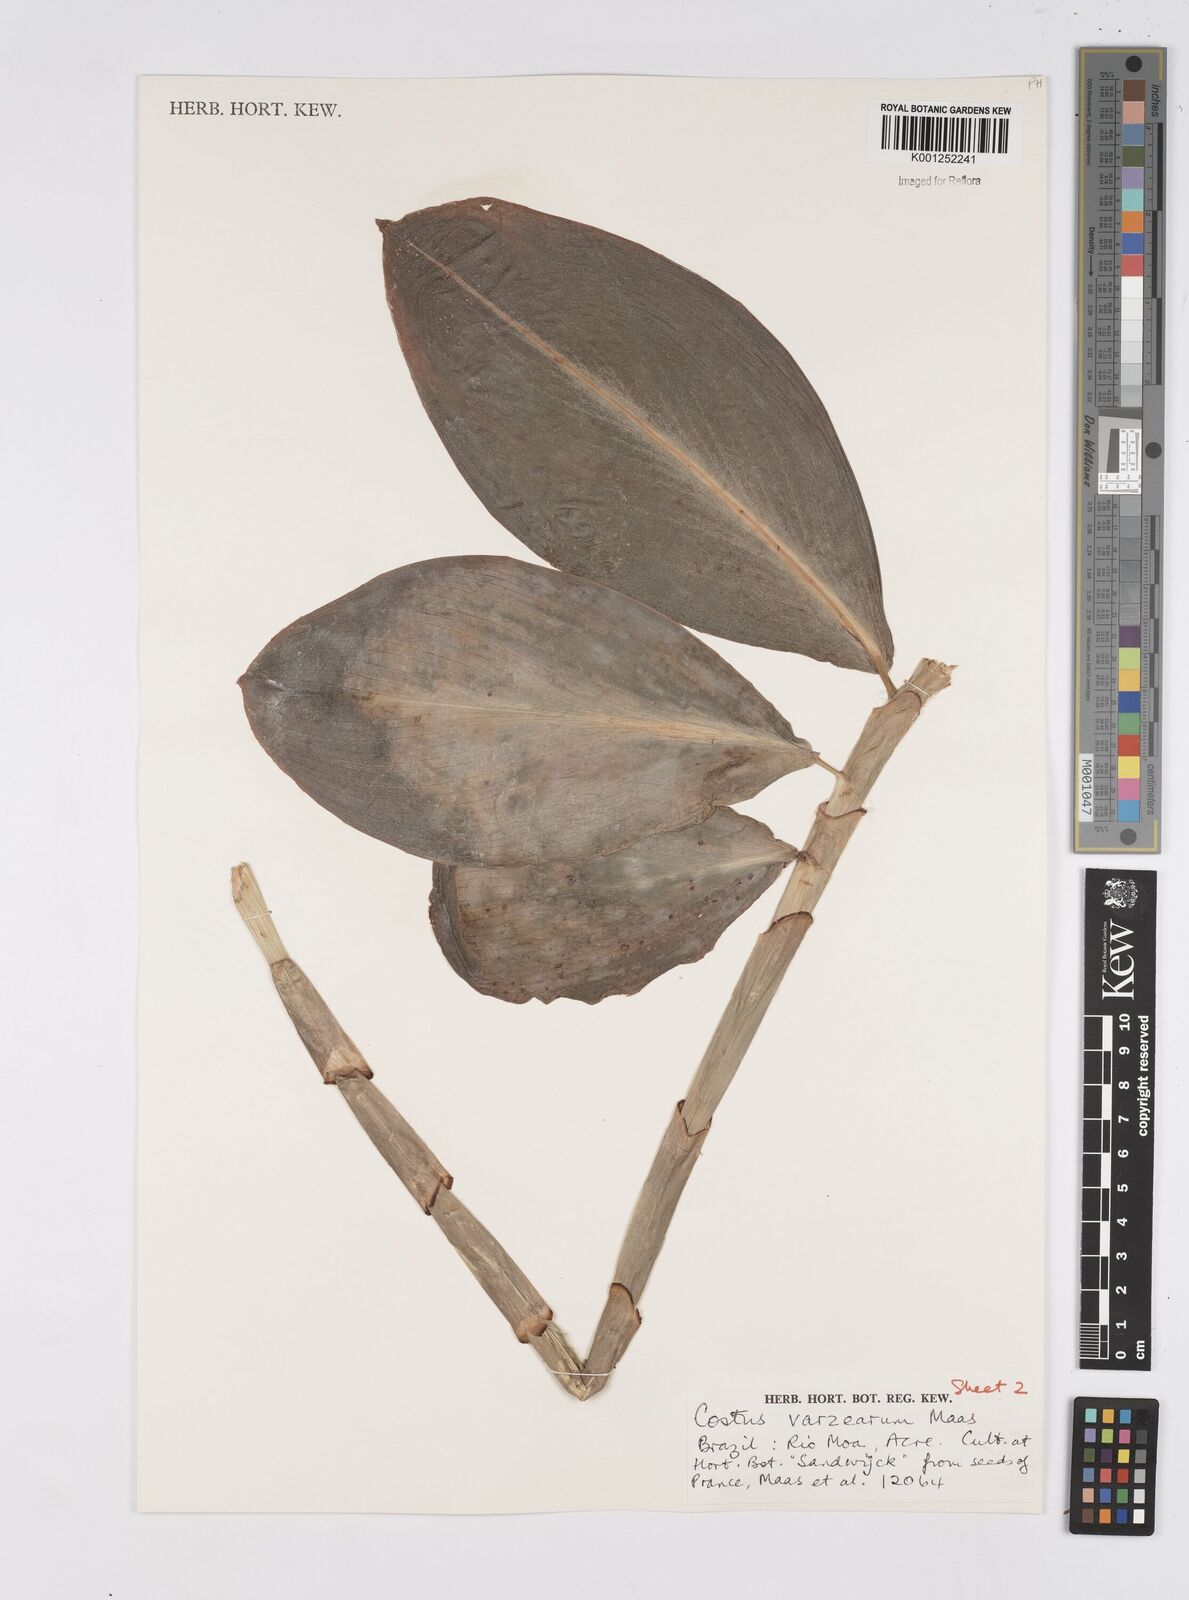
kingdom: Plantae
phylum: Tracheophyta
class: Liliopsida
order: Zingiberales
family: Costaceae
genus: Costus
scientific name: Costus varzearum
